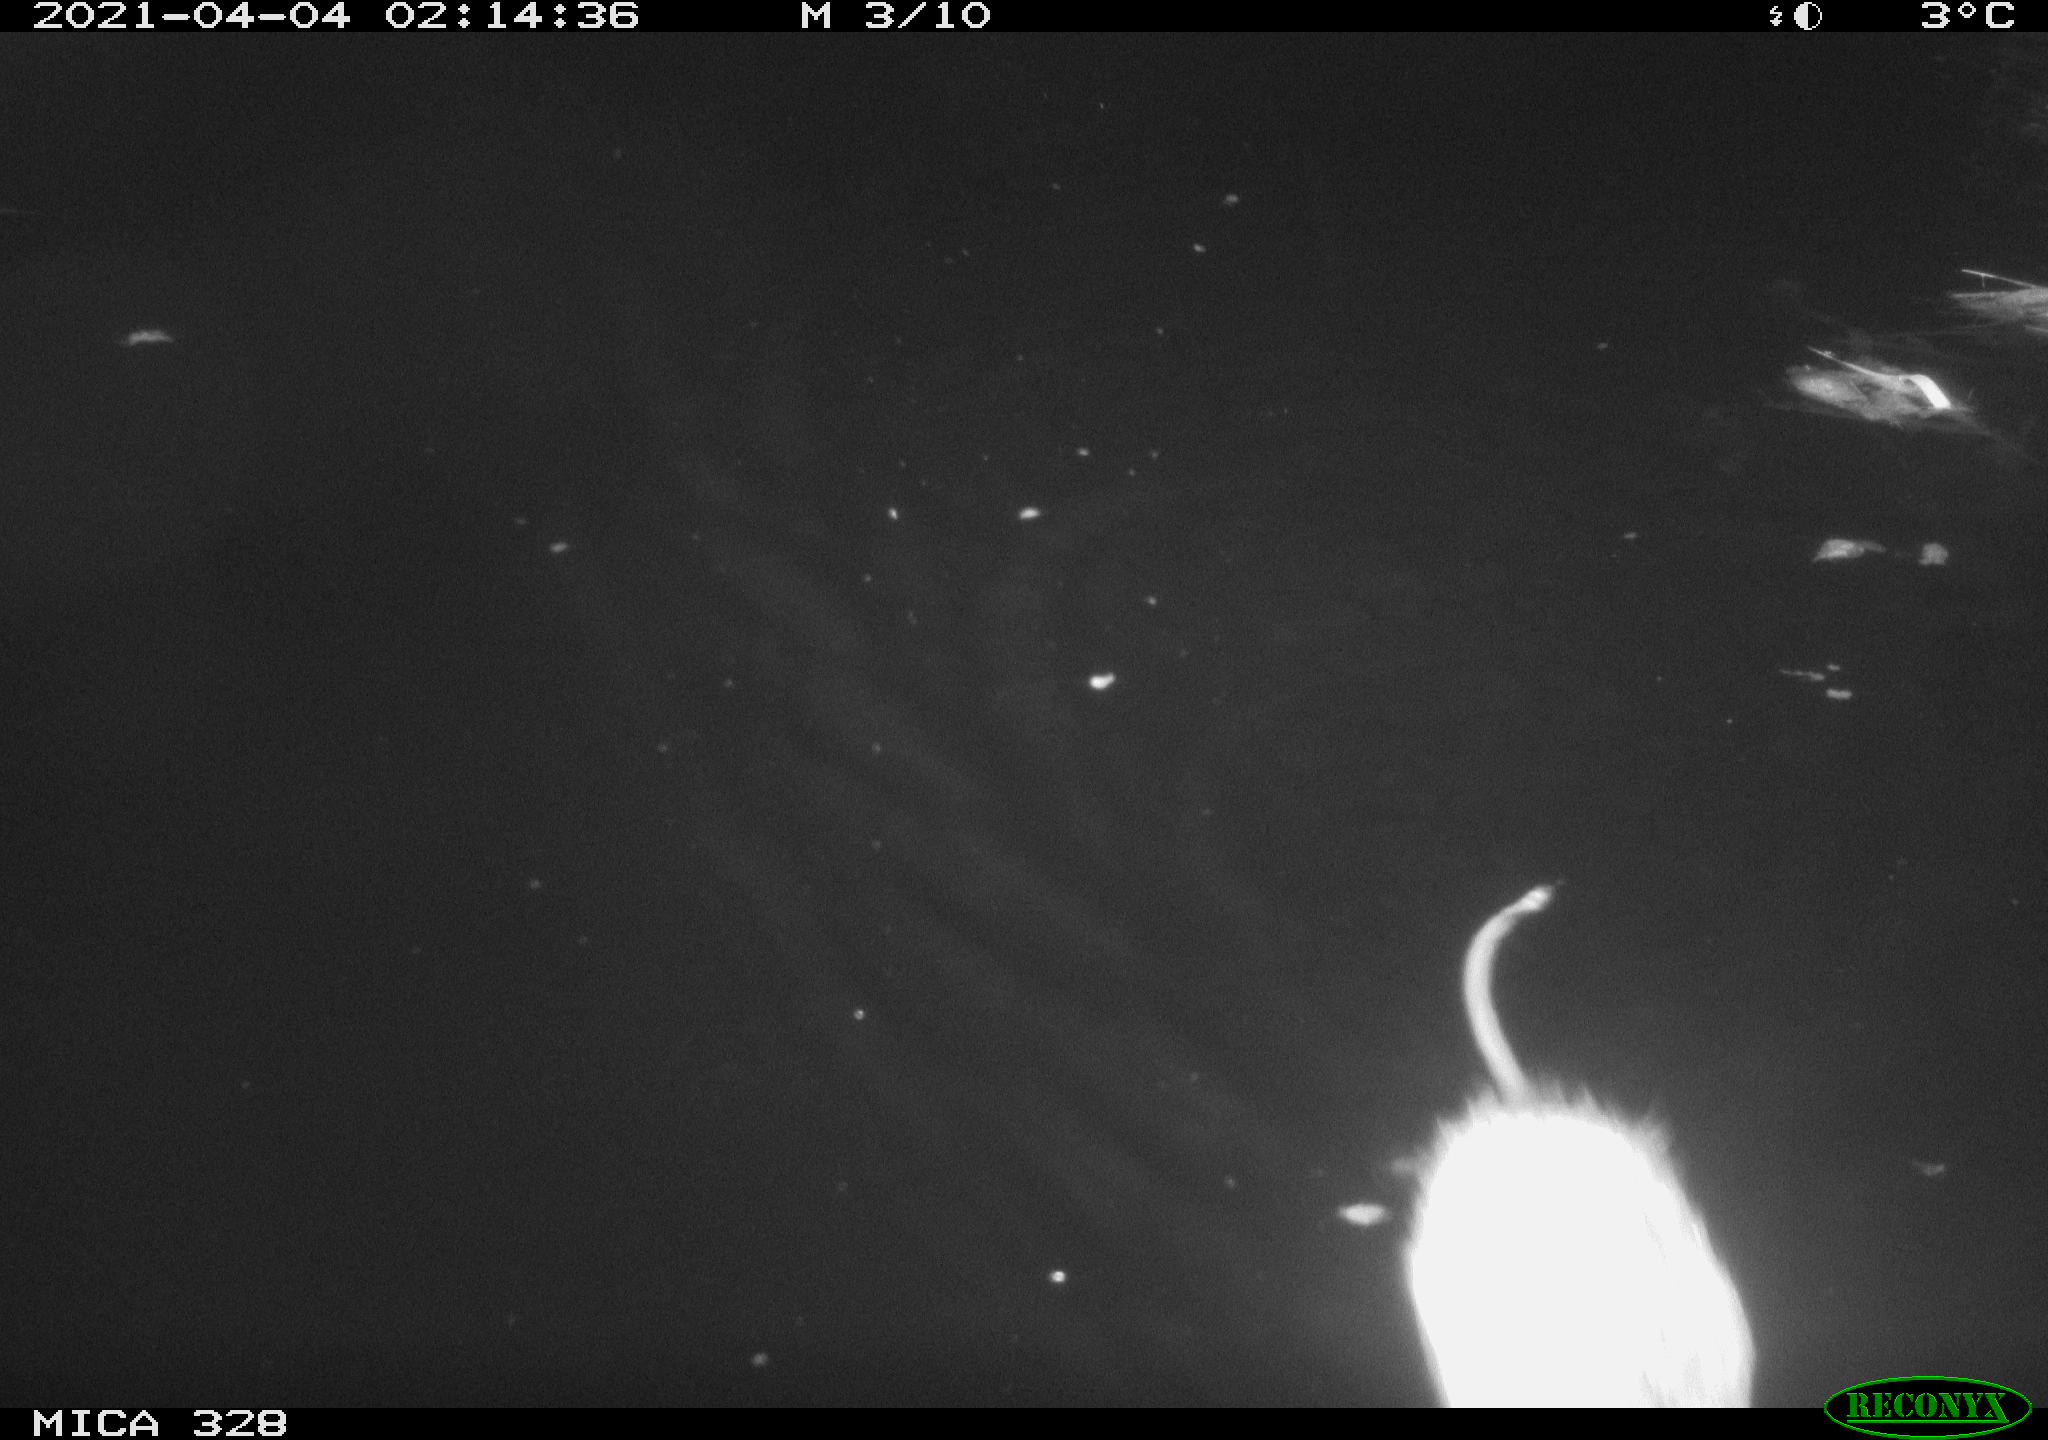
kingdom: Animalia
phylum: Chordata
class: Mammalia
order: Rodentia
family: Cricetidae
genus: Ondatra
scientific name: Ondatra zibethicus
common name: Muskrat
